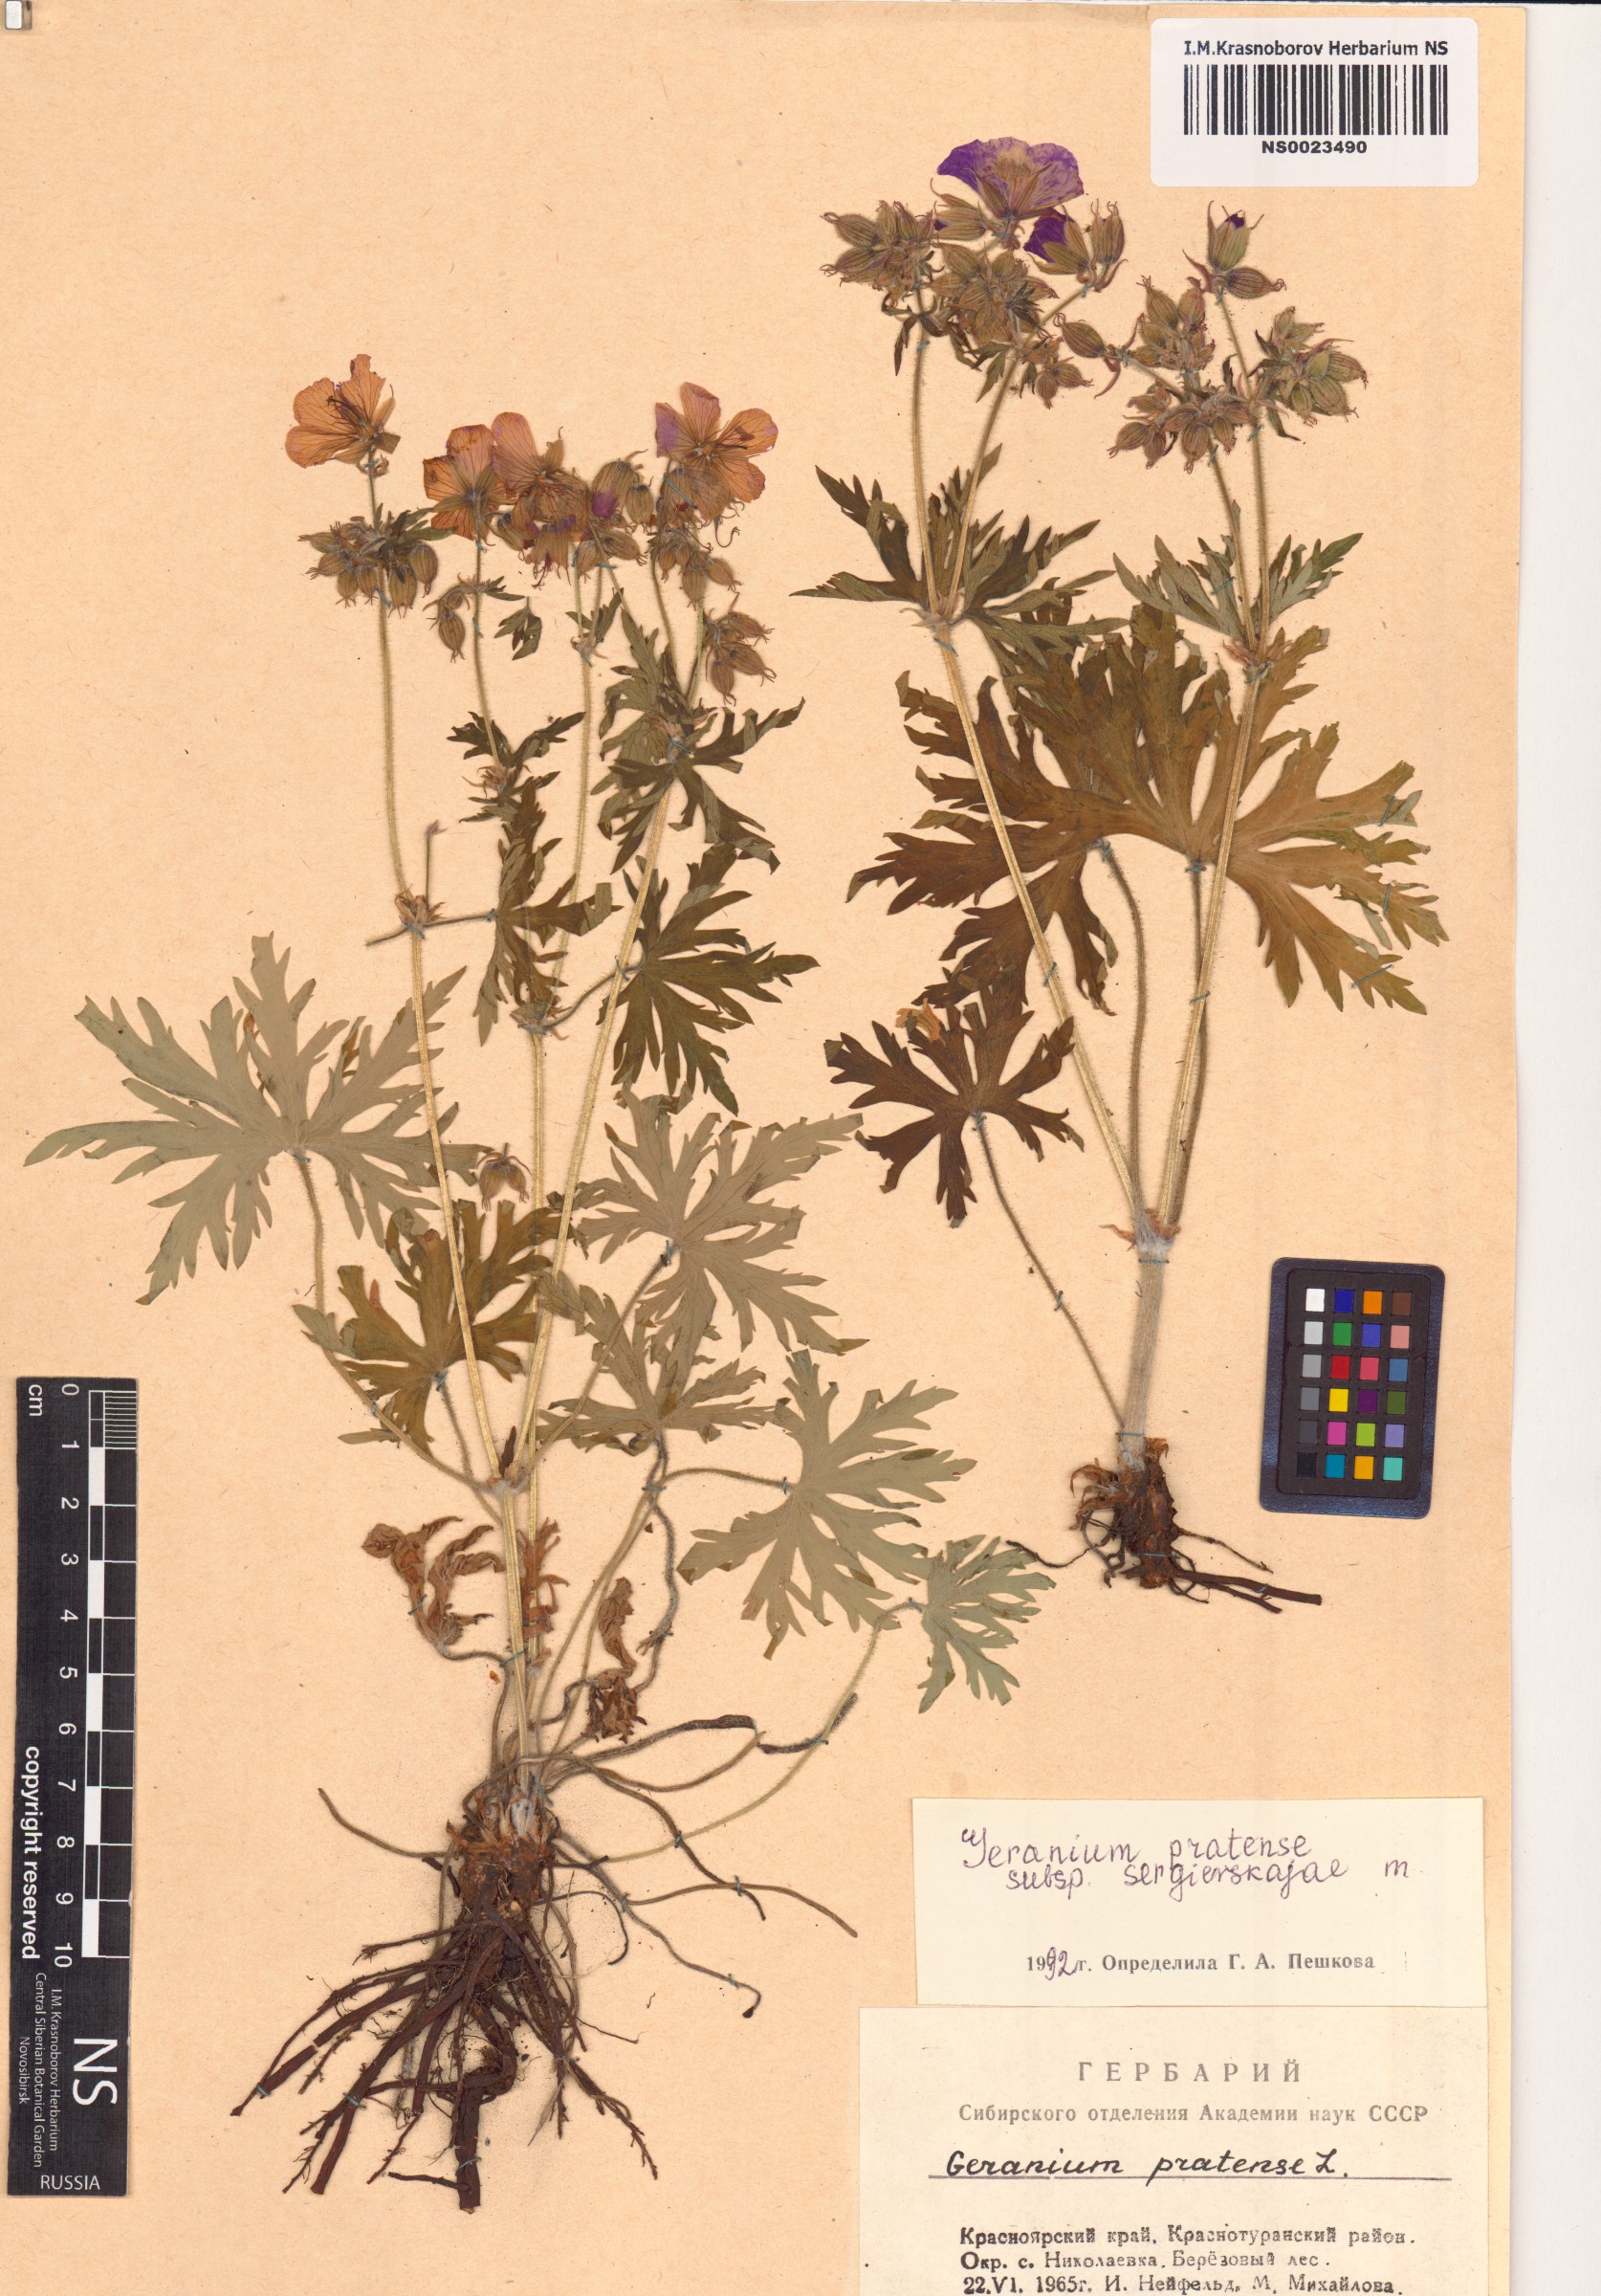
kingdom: Plantae
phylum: Tracheophyta
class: Magnoliopsida
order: Geraniales
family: Geraniaceae
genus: Geranium
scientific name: Geranium pratense
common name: Meadow crane's-bill
